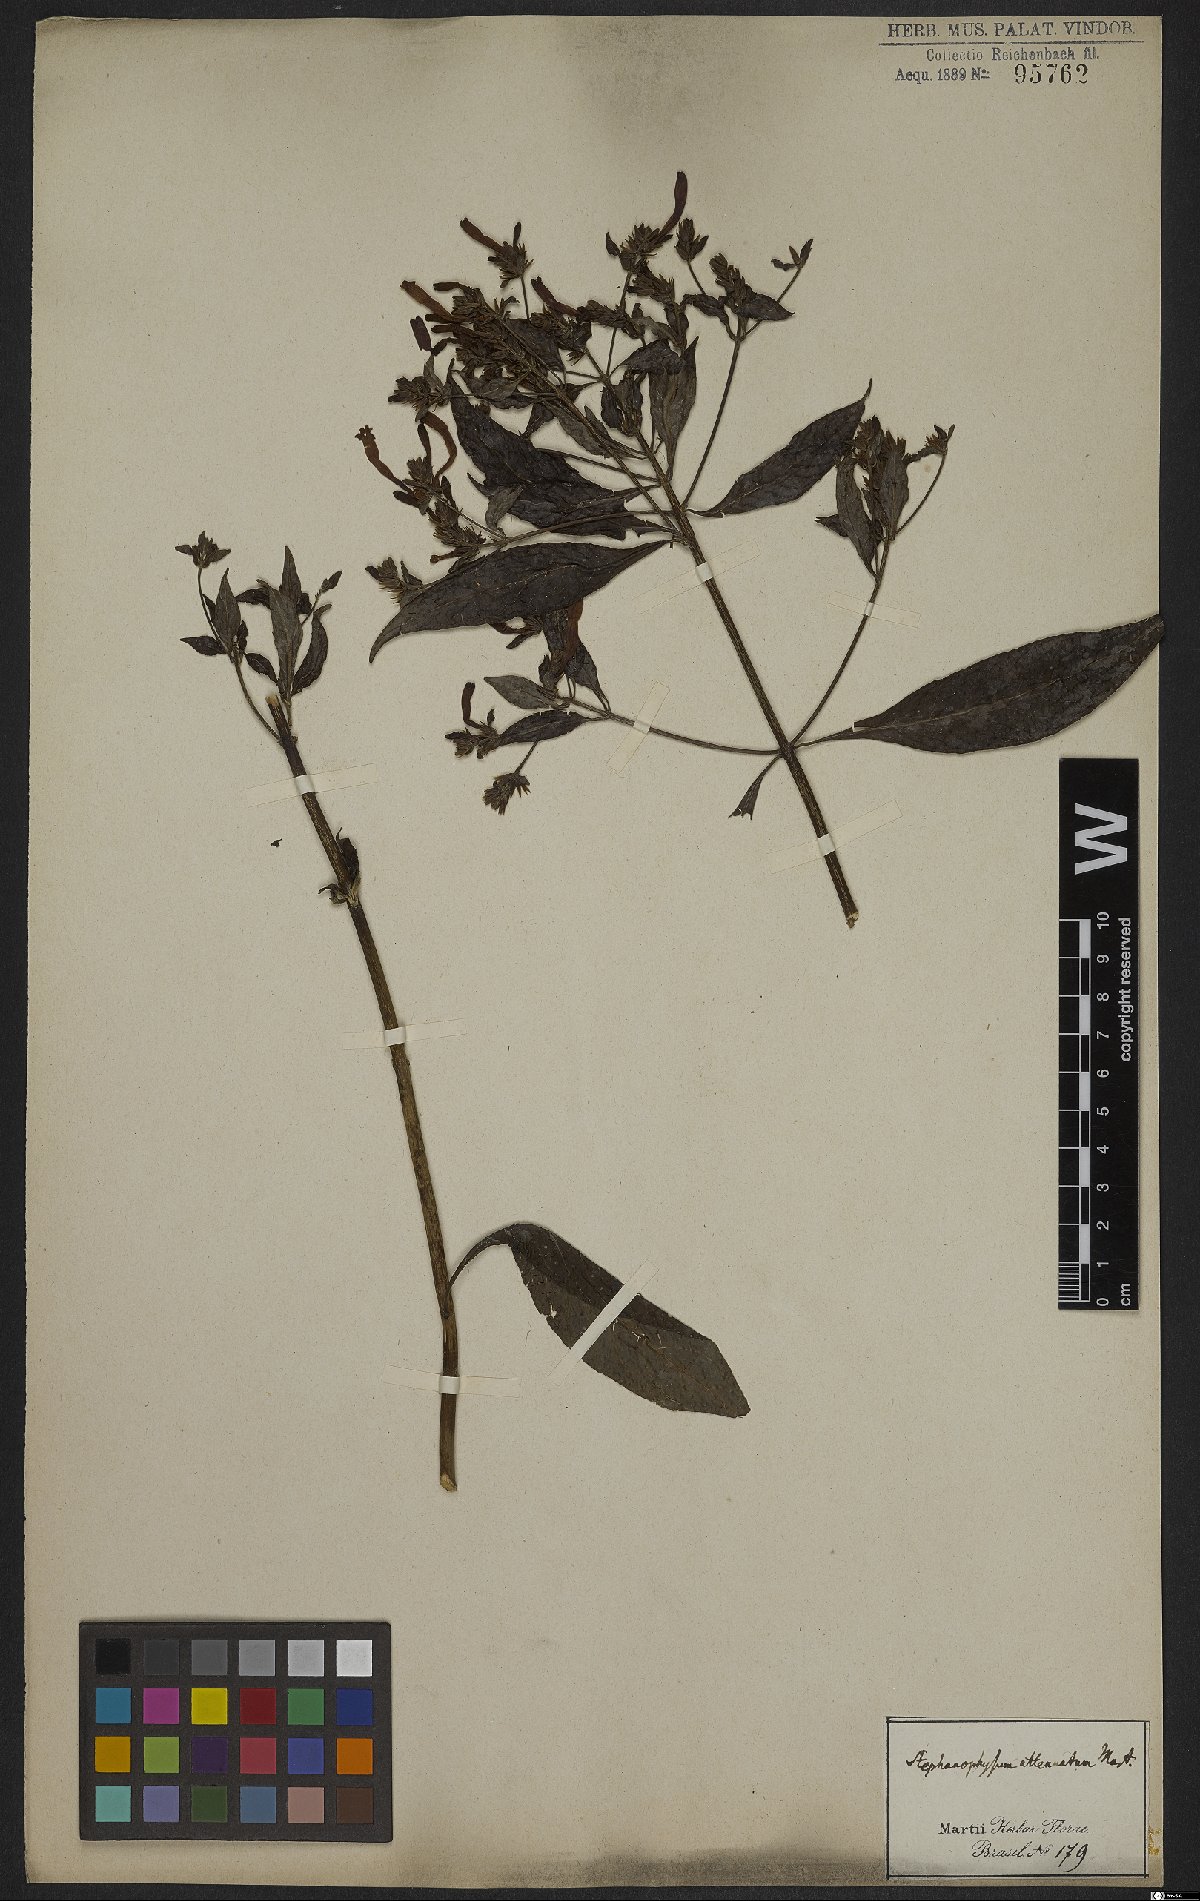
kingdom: Plantae
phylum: Tracheophyta
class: Magnoliopsida
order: Lamiales
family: Acanthaceae
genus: Aphelandra
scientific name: Aphelandra longiflora
